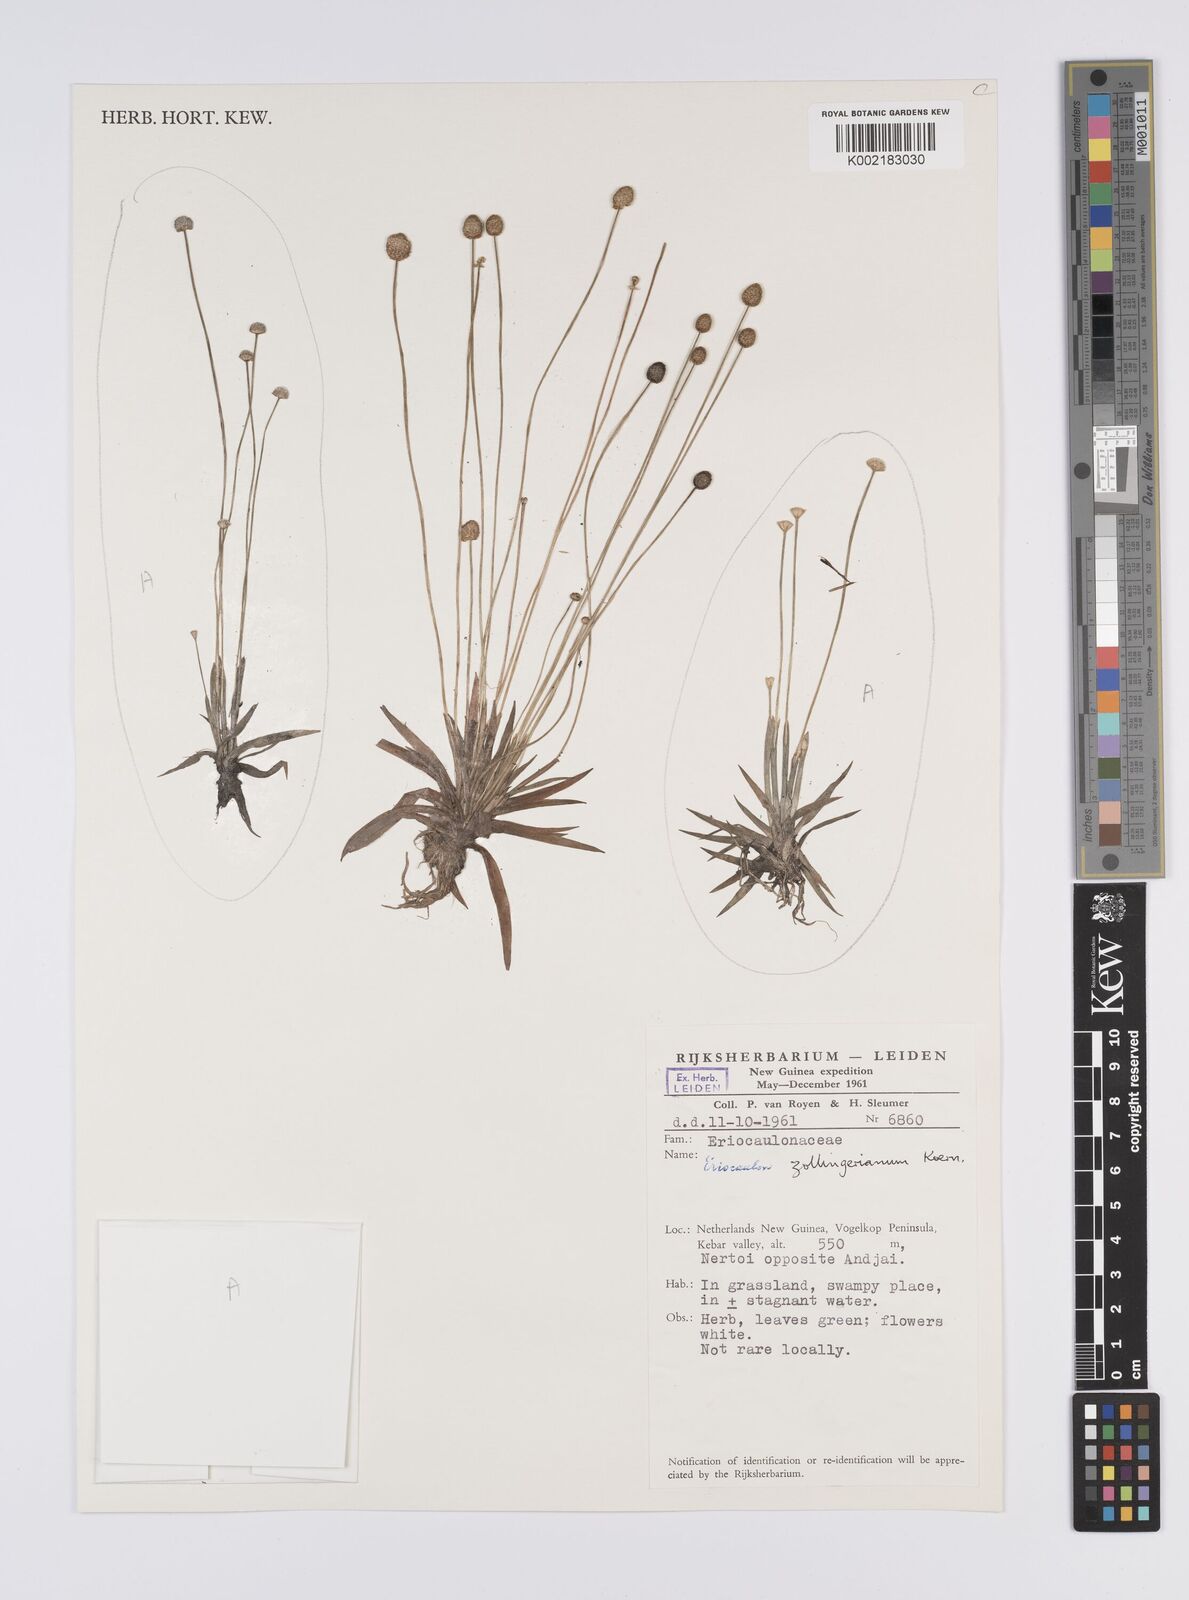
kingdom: Plantae
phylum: Tracheophyta
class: Liliopsida
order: Poales
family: Eriocaulaceae
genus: Eriocaulon
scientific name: Eriocaulon zollingerianum
